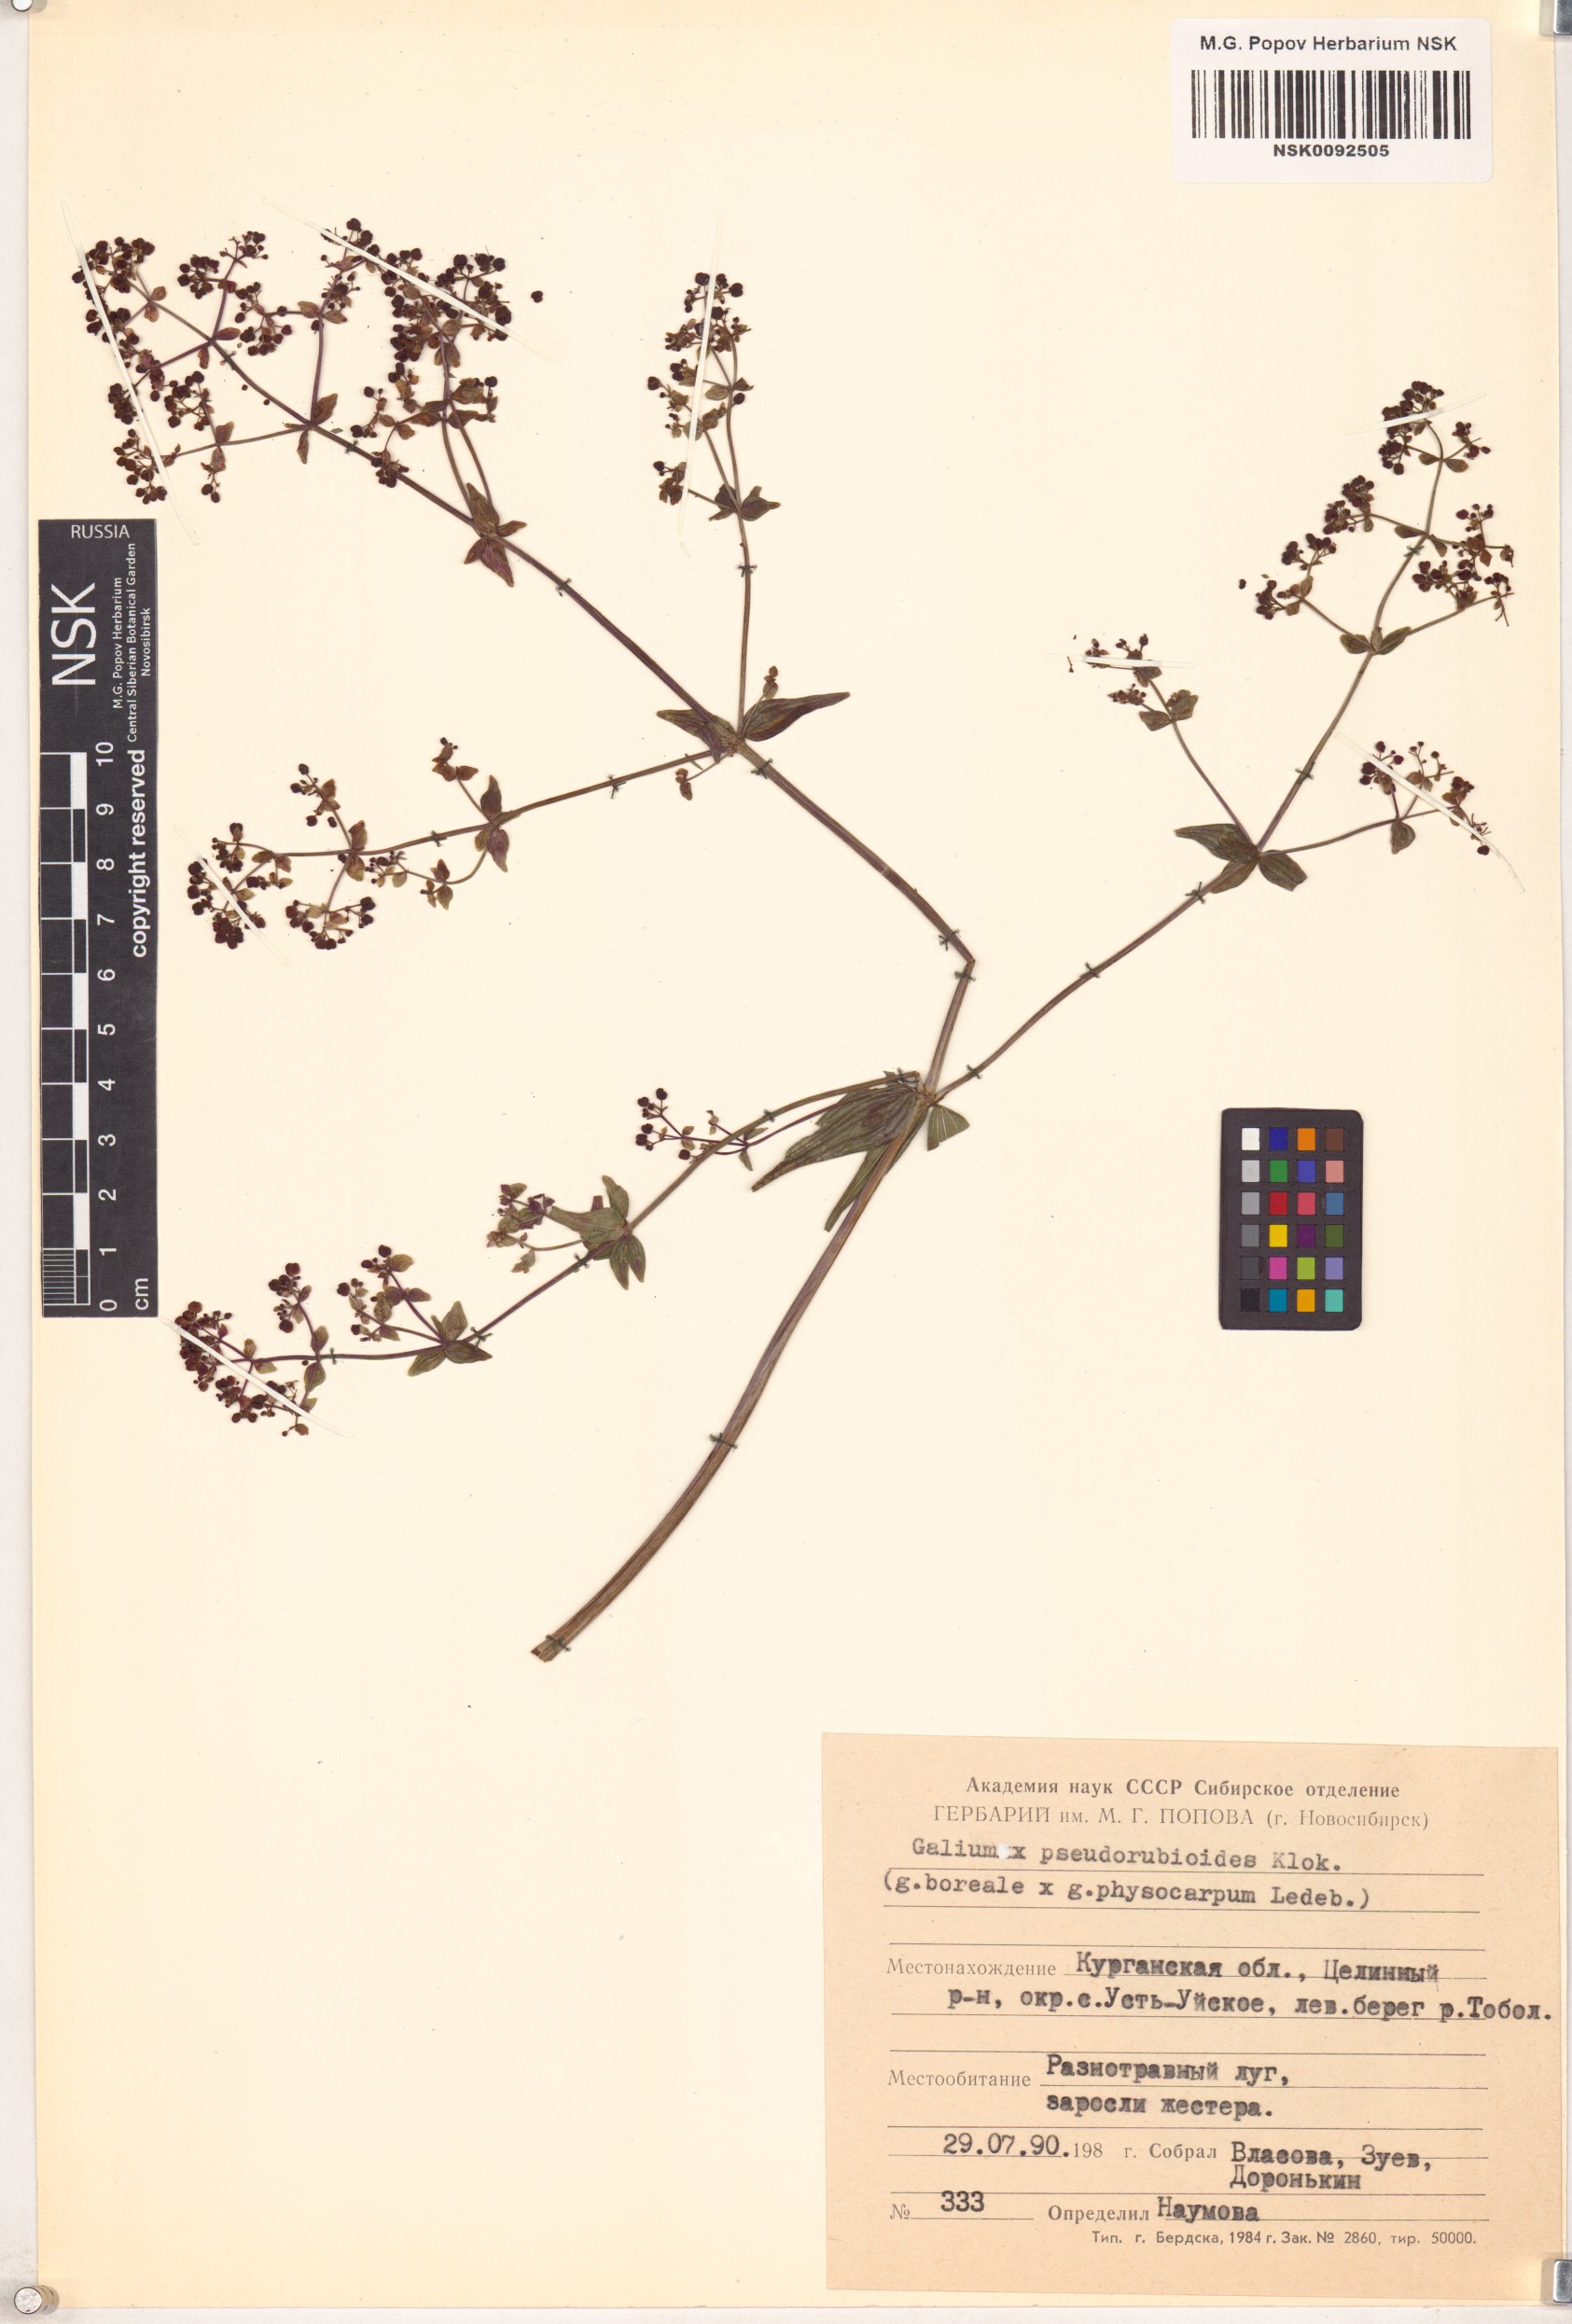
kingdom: Plantae
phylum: Tracheophyta
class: Magnoliopsida
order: Gentianales
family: Rubiaceae
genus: Galium
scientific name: Galium
